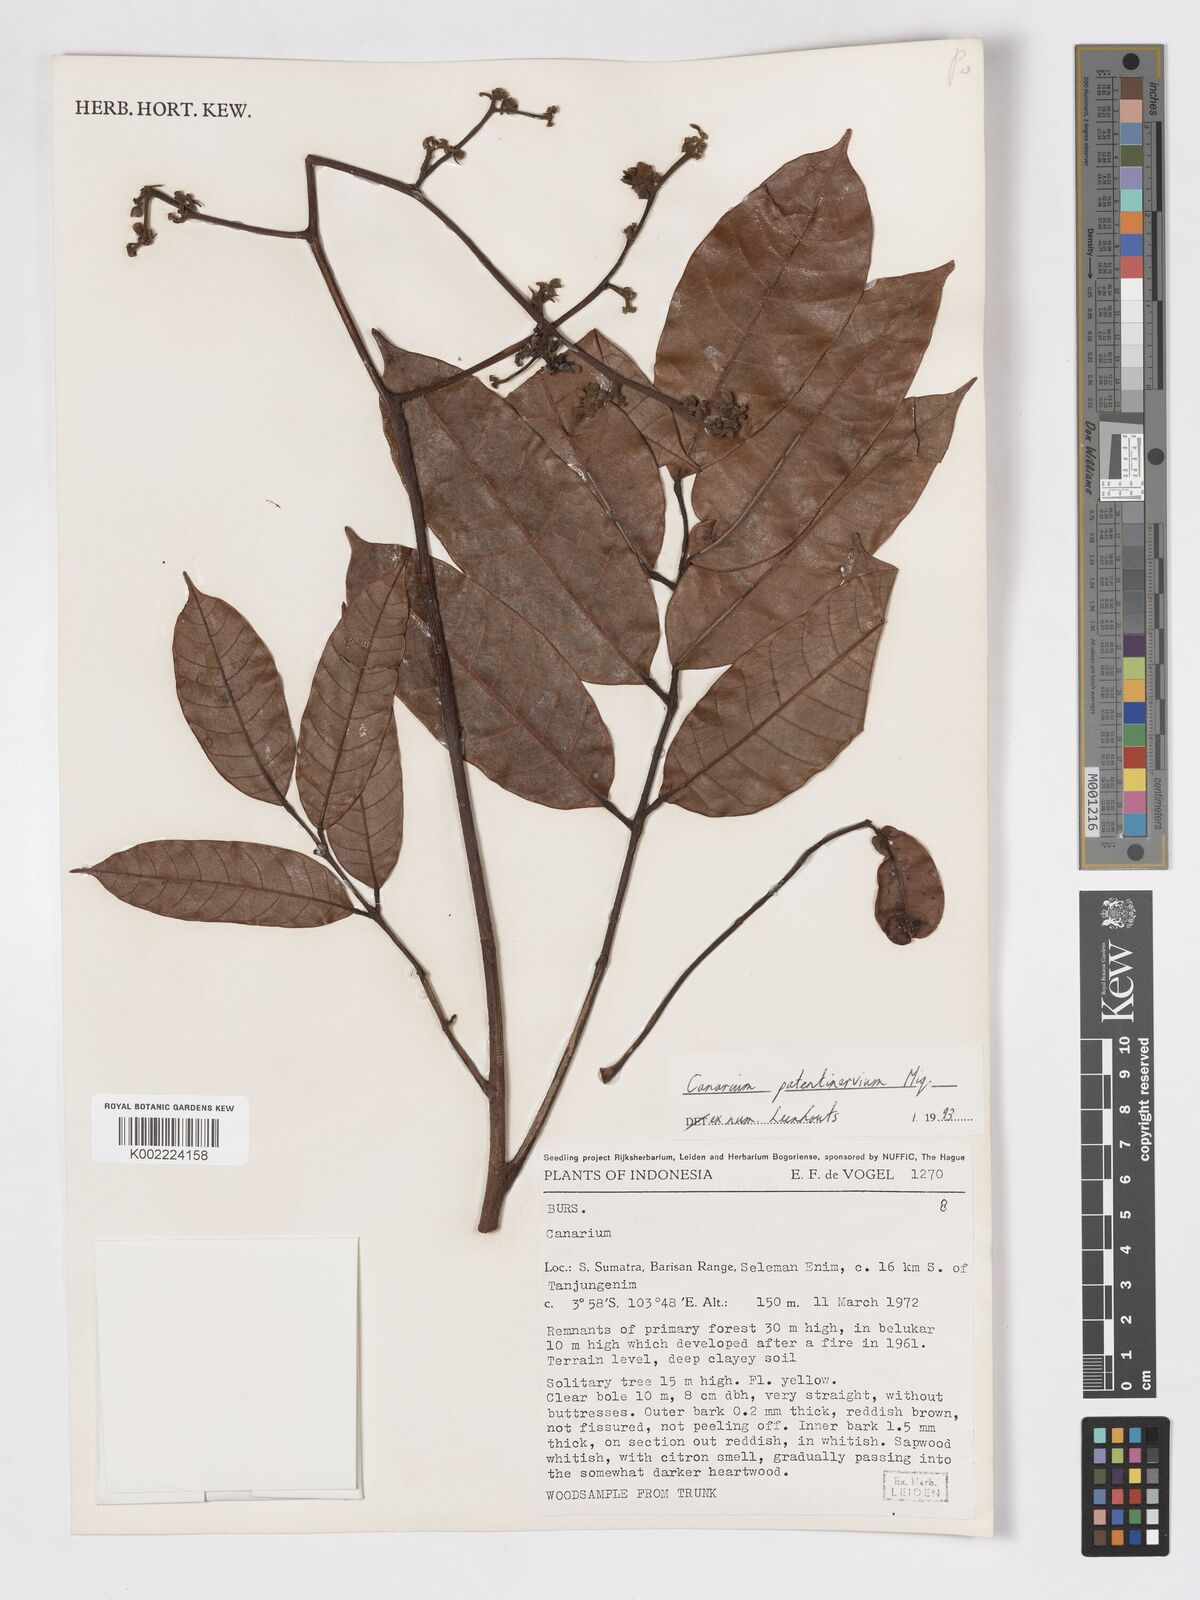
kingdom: Plantae
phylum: Tracheophyta
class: Magnoliopsida
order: Sapindales
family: Burseraceae
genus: Canarium
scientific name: Canarium patentinervium
